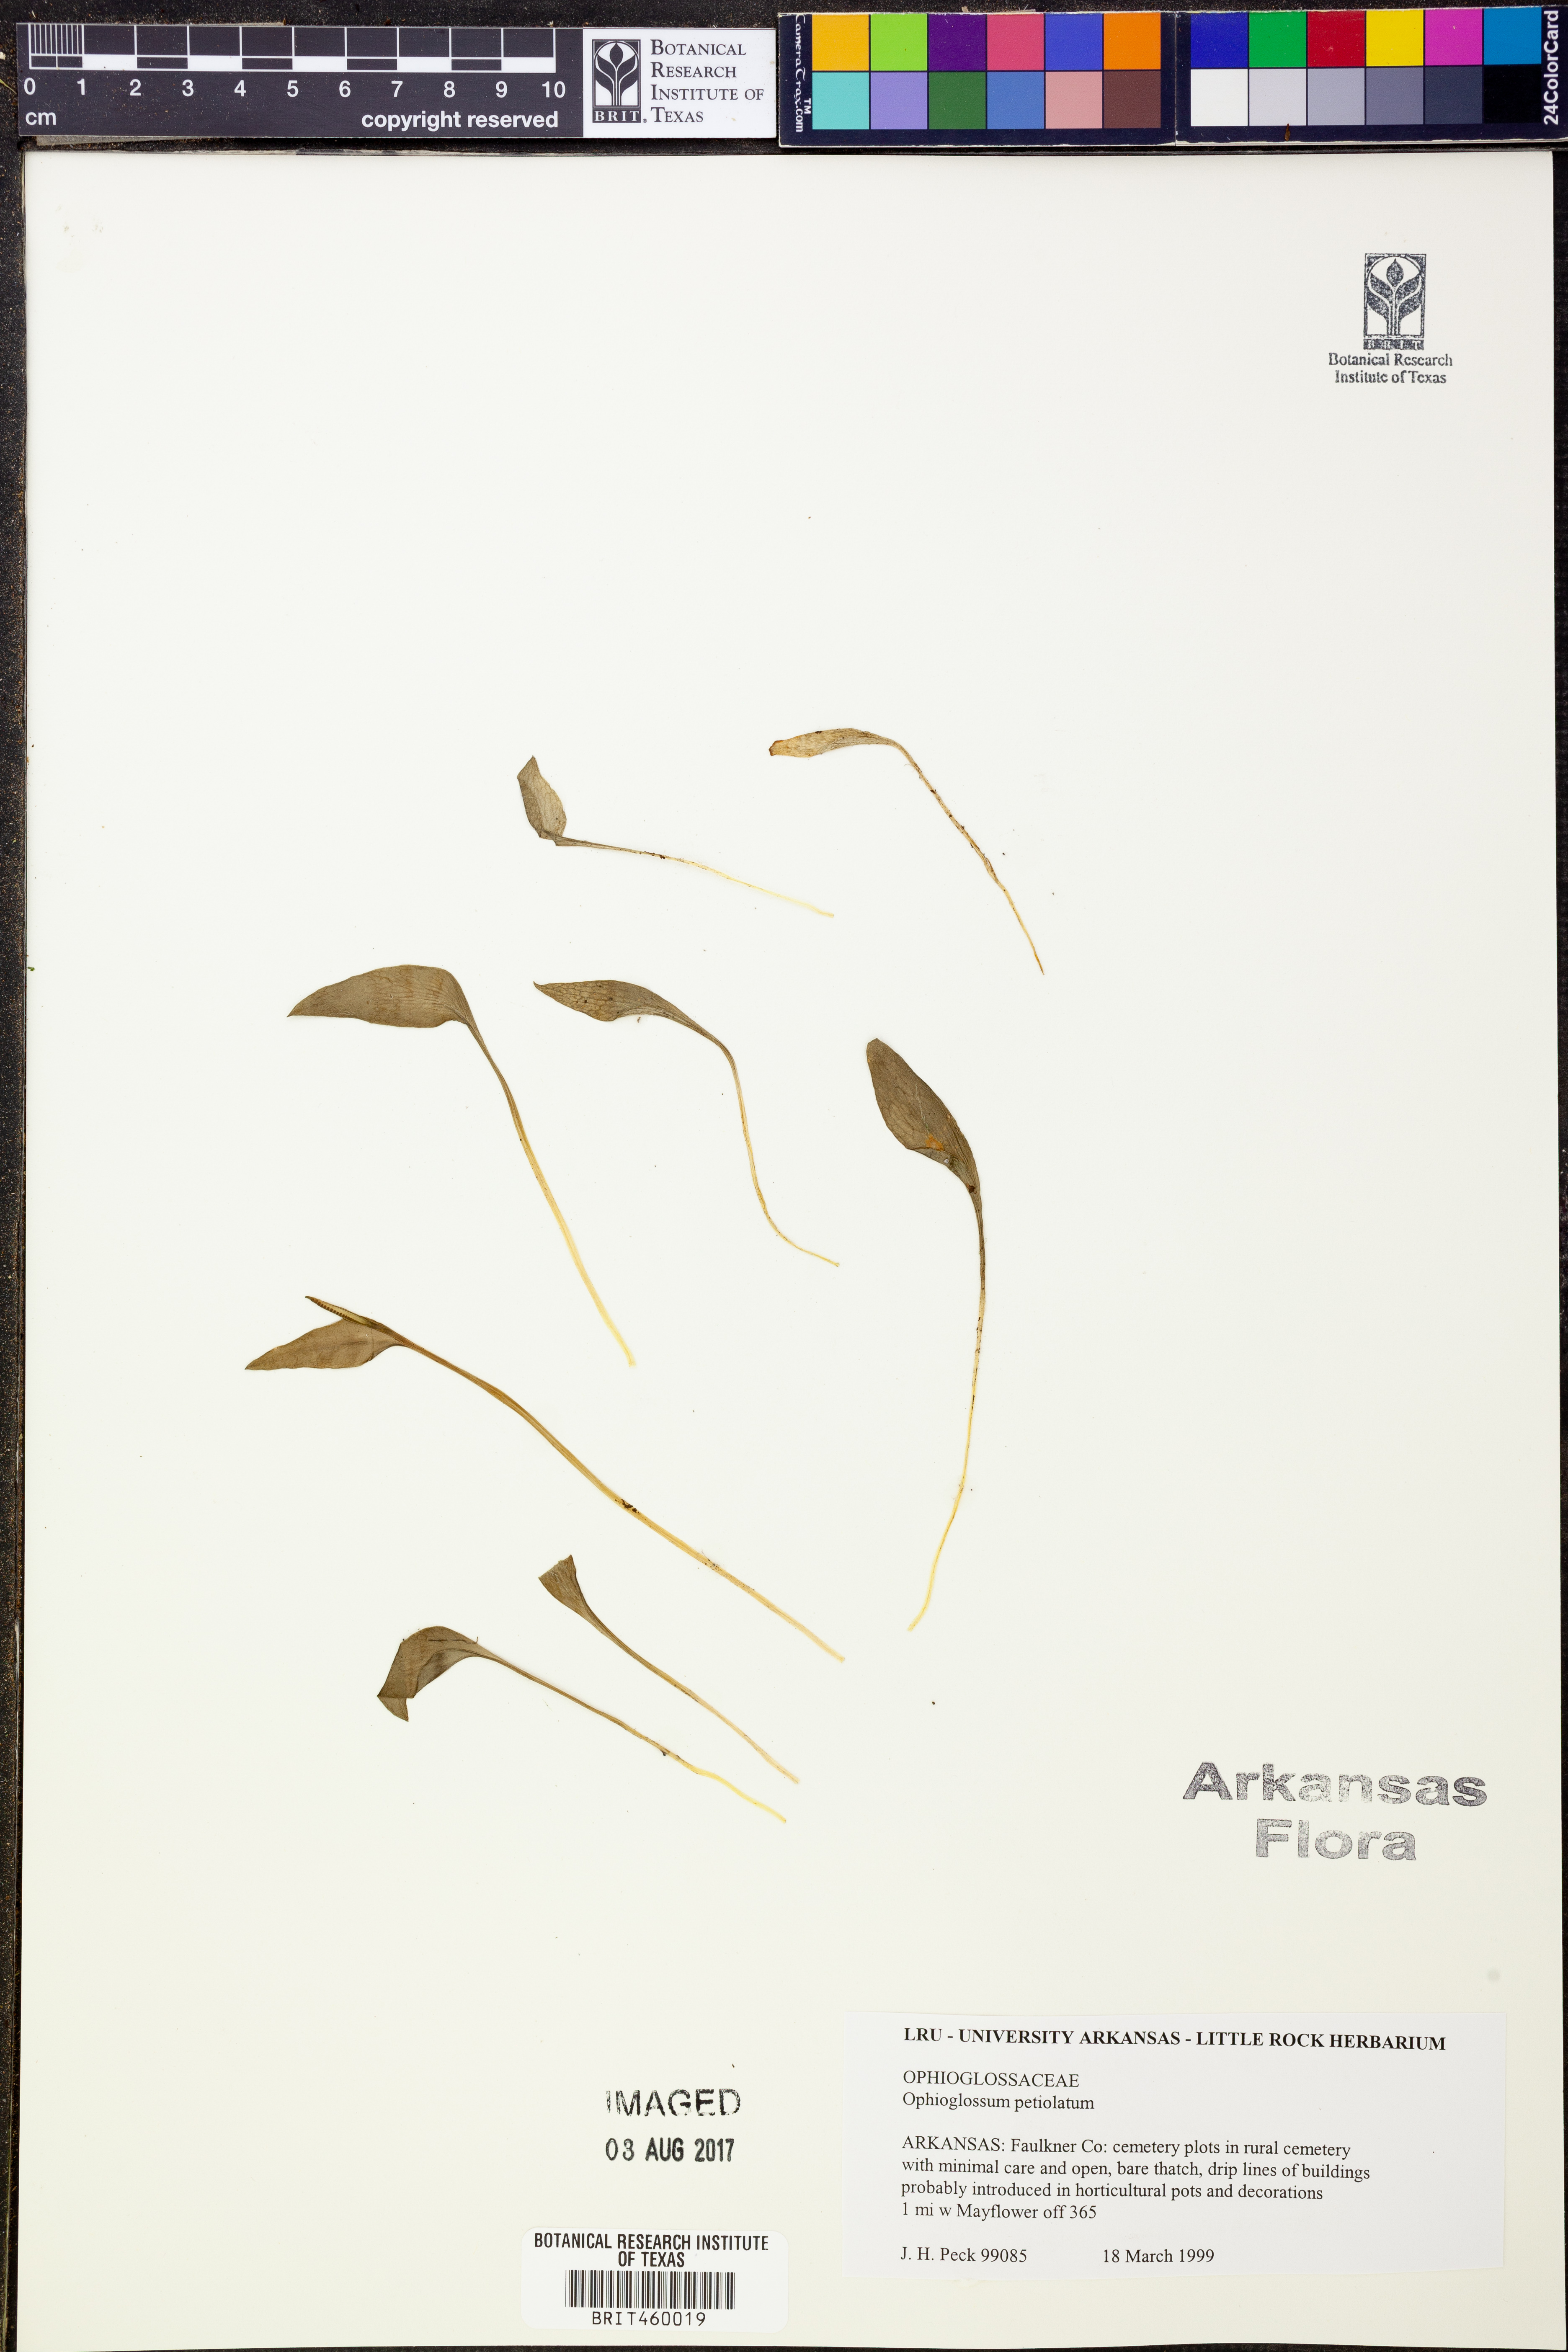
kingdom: Plantae
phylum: Tracheophyta
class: Polypodiopsida
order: Ophioglossales
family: Ophioglossaceae
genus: Ophioglossum
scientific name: Ophioglossum petiolatum
